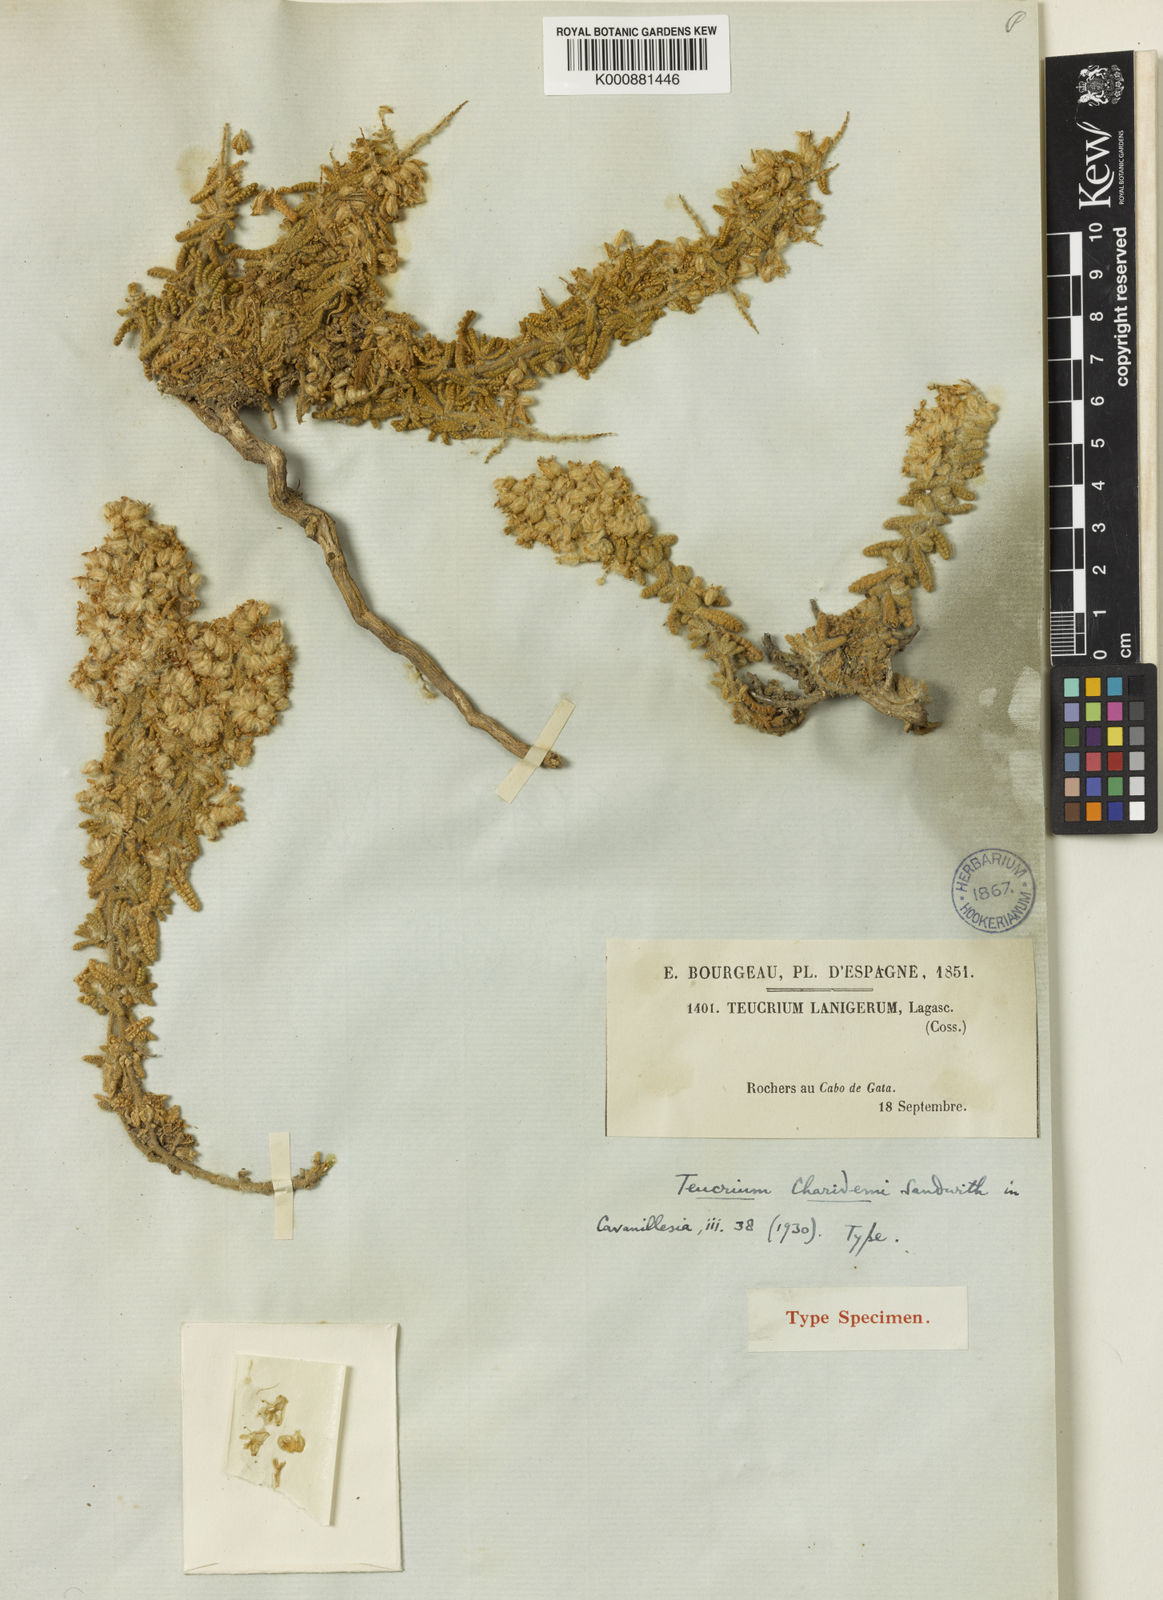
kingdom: Plantae
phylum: Tracheophyta
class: Magnoliopsida
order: Lamiales
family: Lamiaceae
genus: Teucrium
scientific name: Teucrium charidemi
